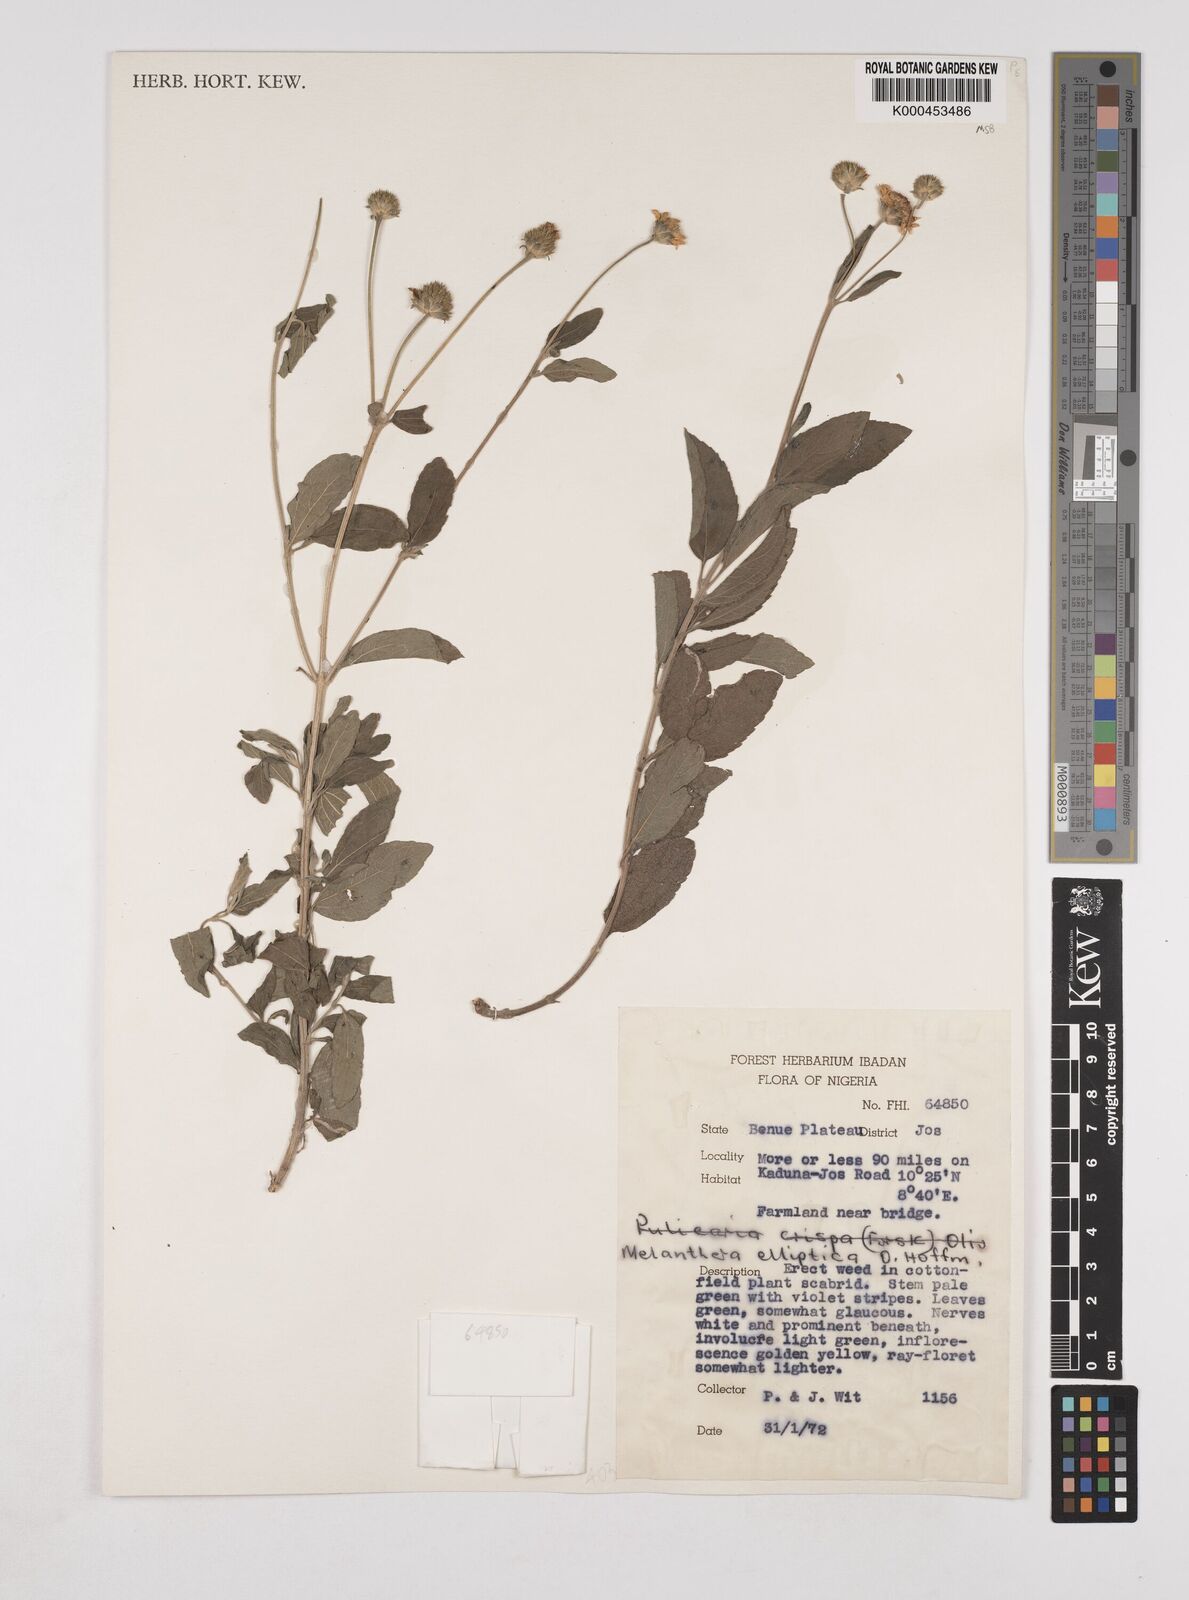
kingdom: Plantae
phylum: Tracheophyta
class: Magnoliopsida
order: Asterales
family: Asteraceae
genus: Lipotriche
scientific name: Lipotriche elliptica
